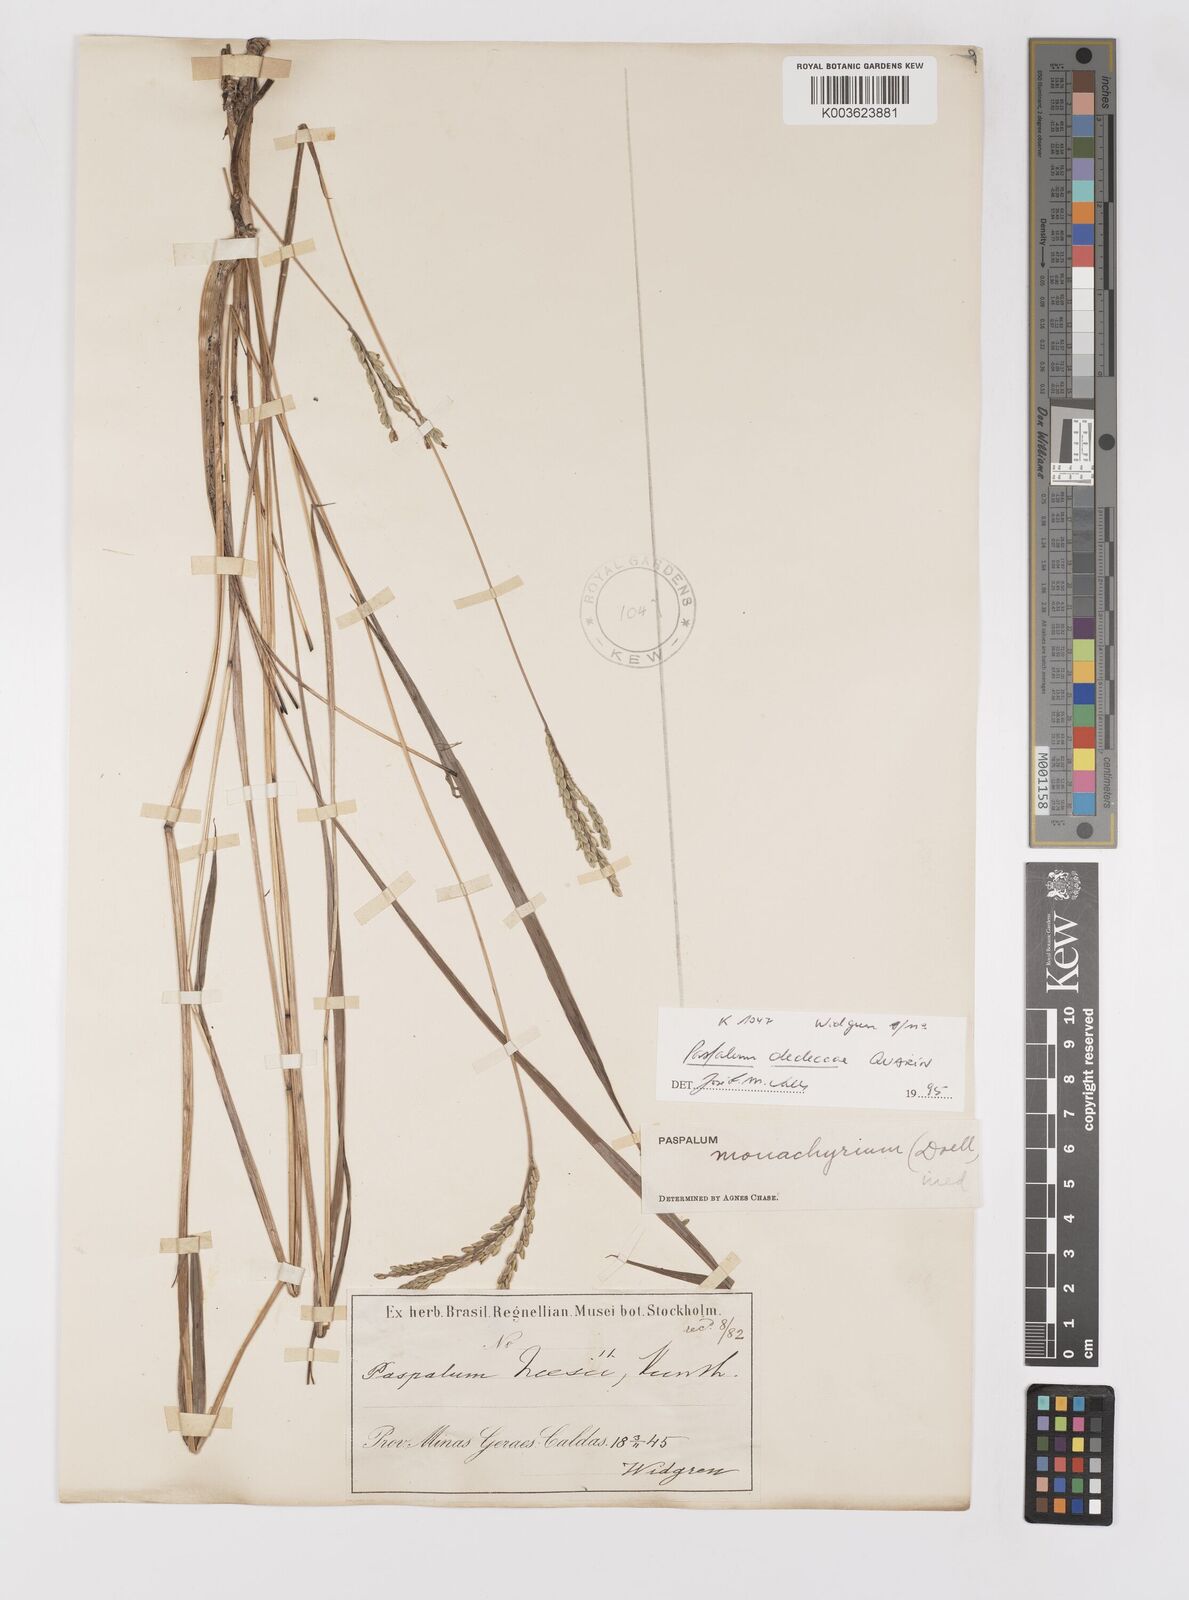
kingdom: Plantae
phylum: Tracheophyta
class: Liliopsida
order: Poales
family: Poaceae
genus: Paspalum
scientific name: Paspalum dedeccae
